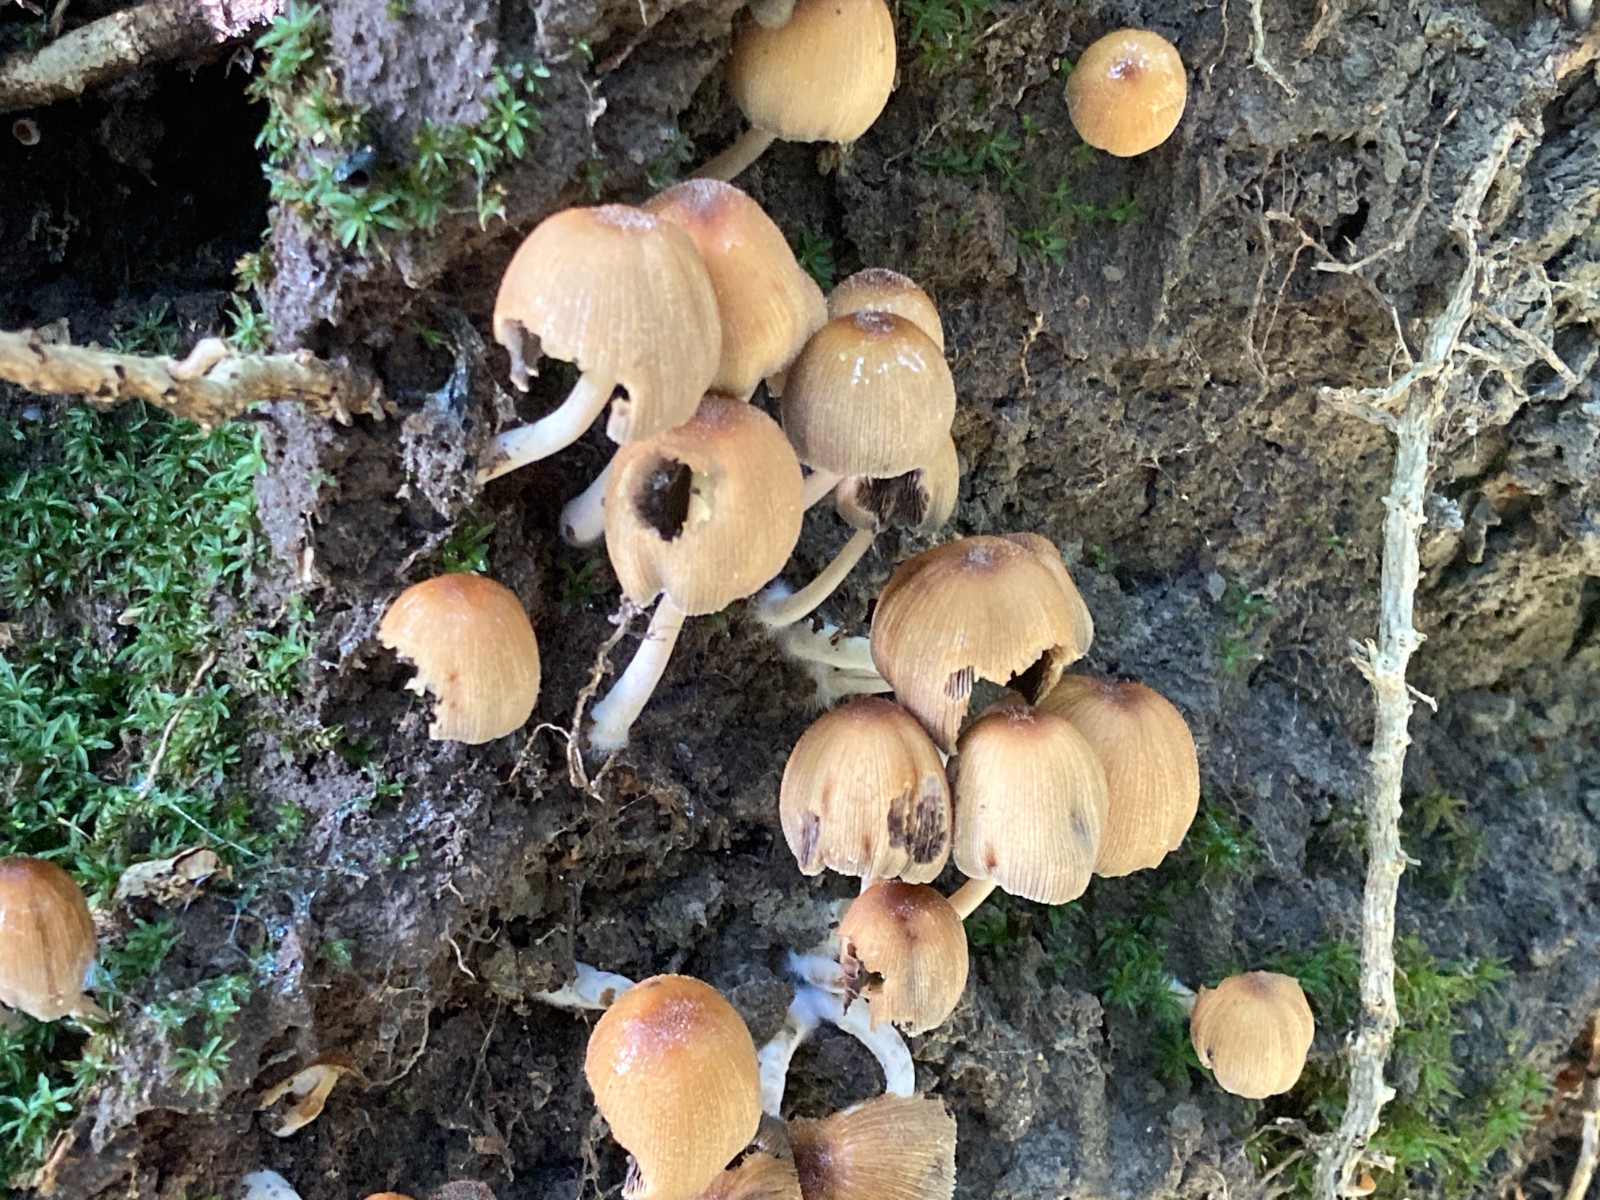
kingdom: Fungi
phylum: Basidiomycota
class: Agaricomycetes
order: Agaricales
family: Psathyrellaceae
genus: Coprinellus
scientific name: Coprinellus micaceus
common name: glimmer-blækhat
